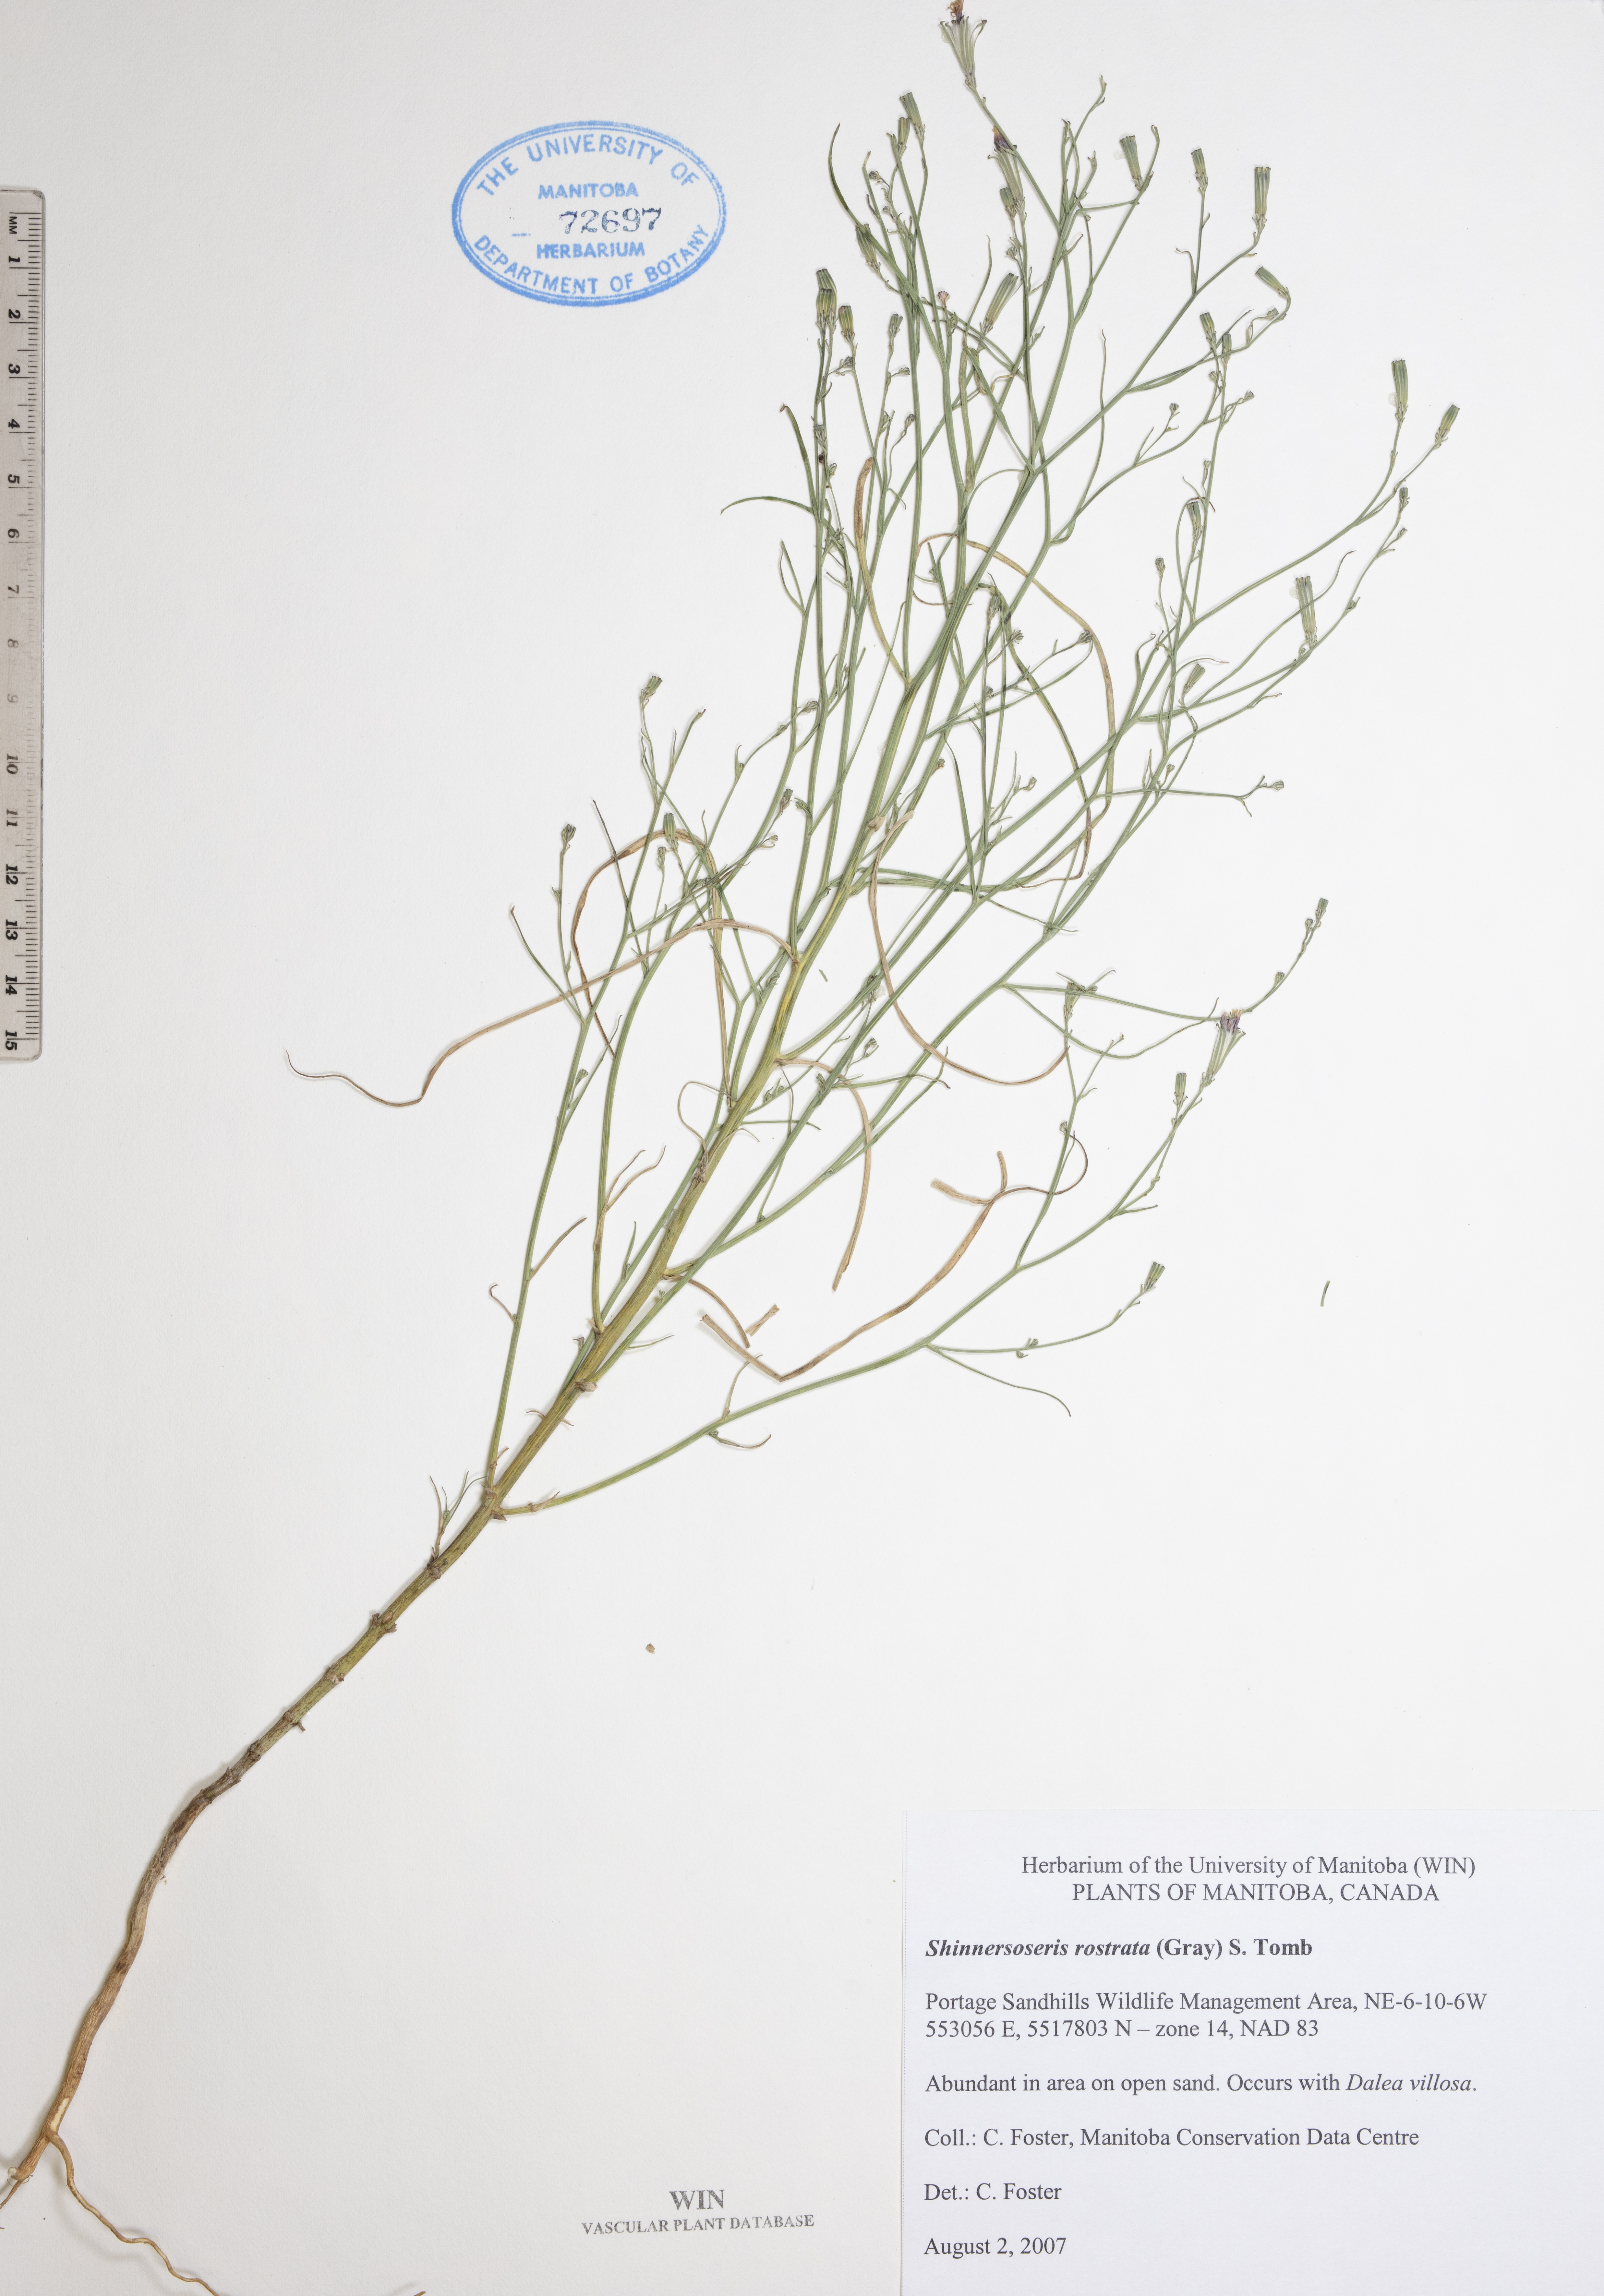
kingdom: Plantae
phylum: Tracheophyta
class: Magnoliopsida
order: Asterales
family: Asteraceae
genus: Shinnersoseris
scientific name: Shinnersoseris rostrata
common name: Annual skeleton-weed
